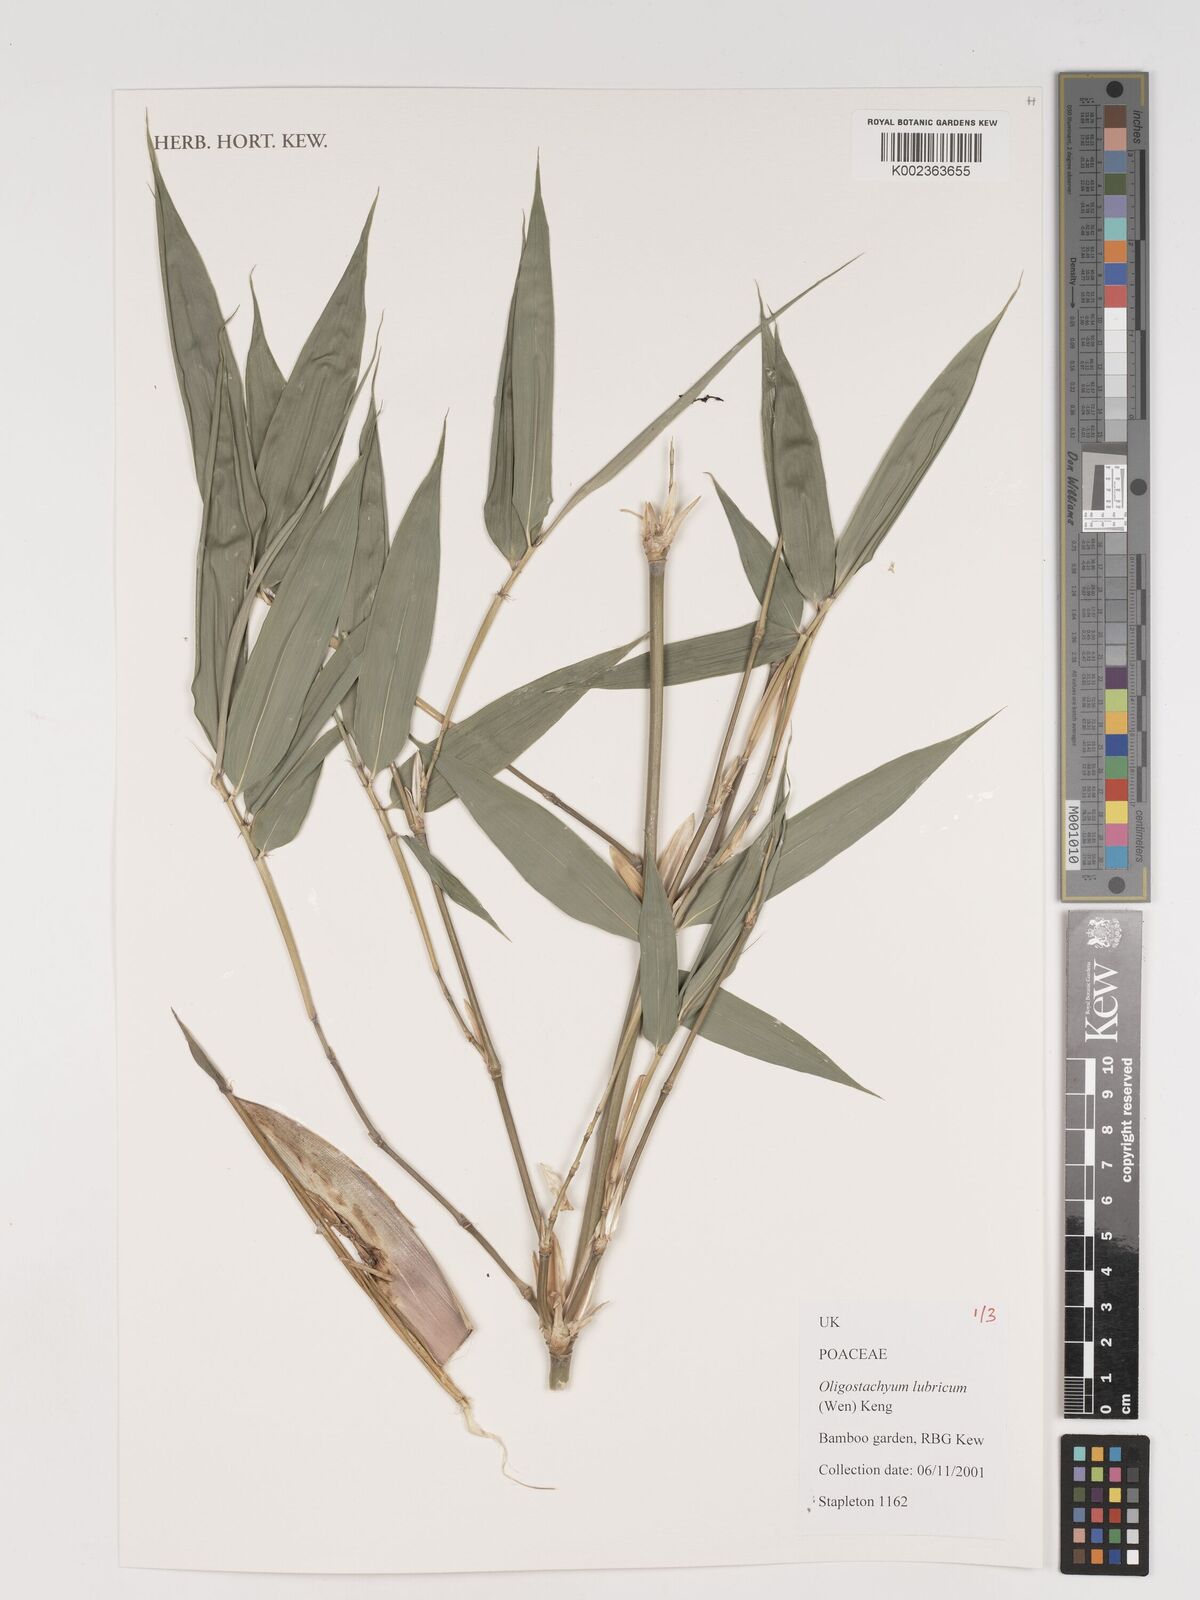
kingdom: Plantae
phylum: Tracheophyta
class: Liliopsida
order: Poales
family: Poaceae
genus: Oligostachyum
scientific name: Oligostachyum lubricum
